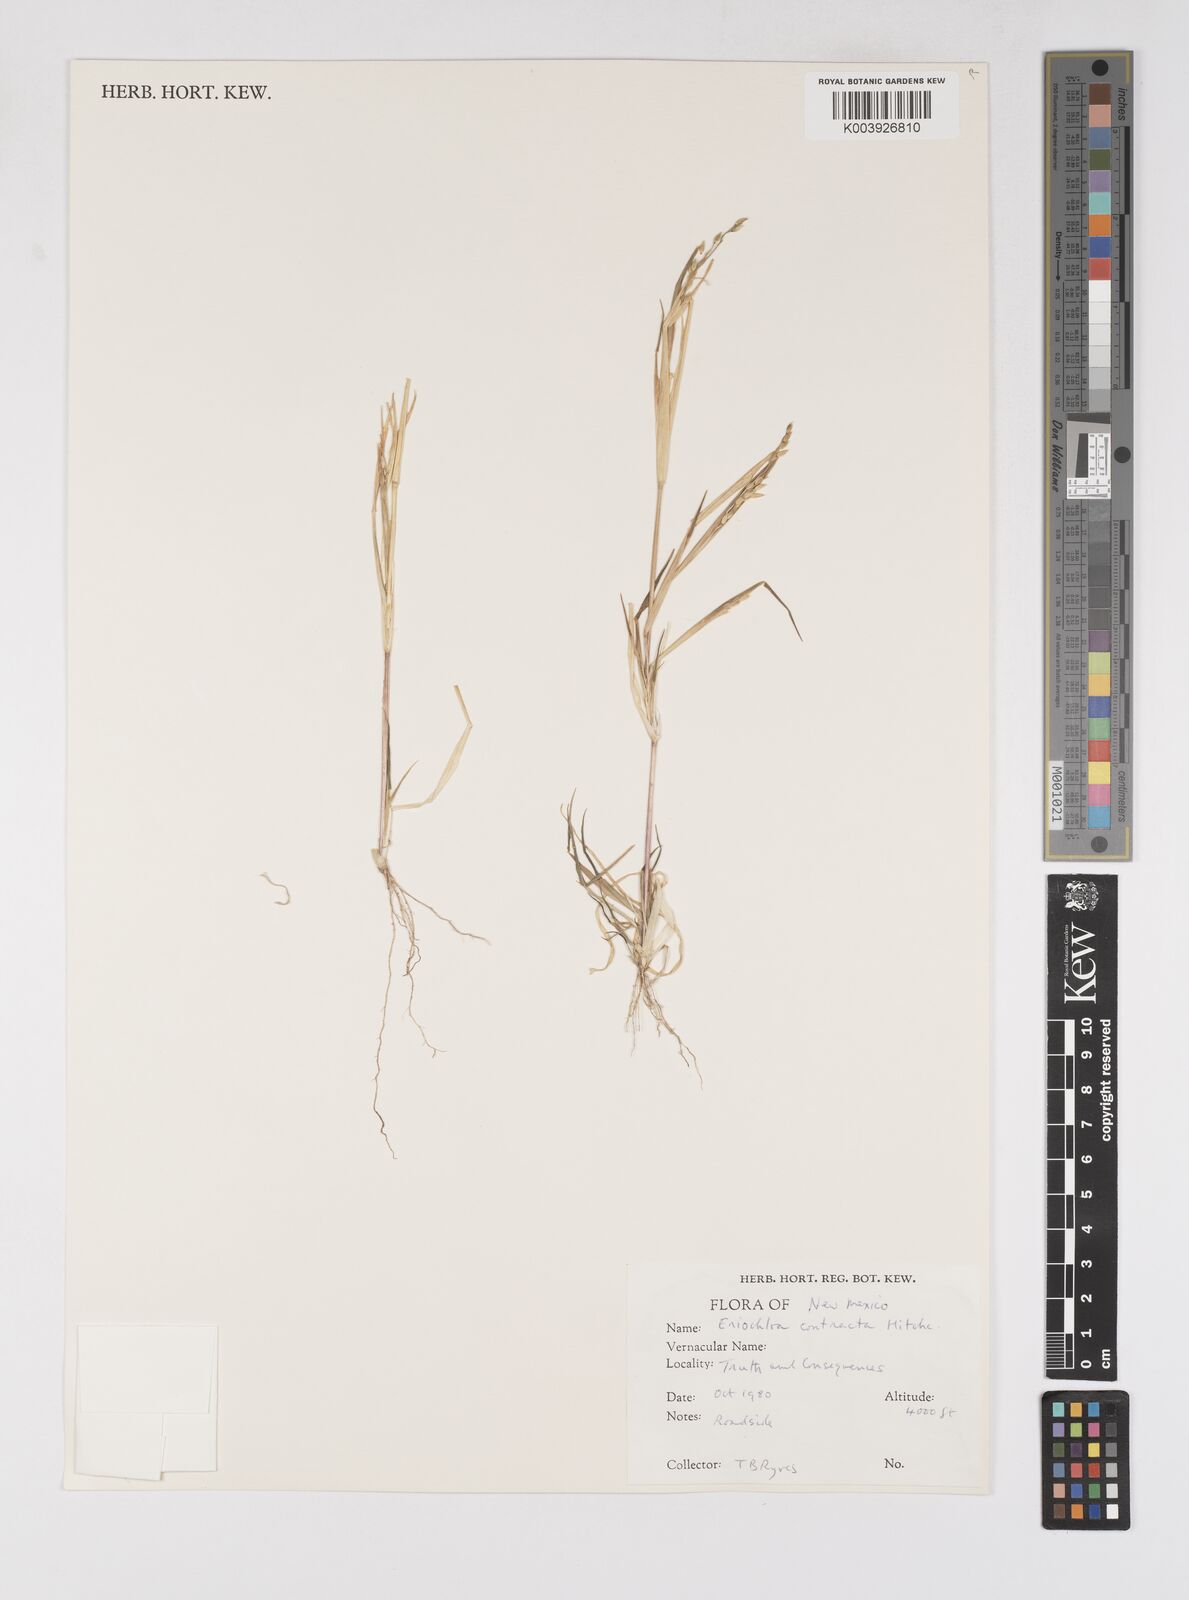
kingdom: Plantae
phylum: Tracheophyta
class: Liliopsida
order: Poales
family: Poaceae
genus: Eriochloa
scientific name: Eriochloa contracta
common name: Prairie cup grass
